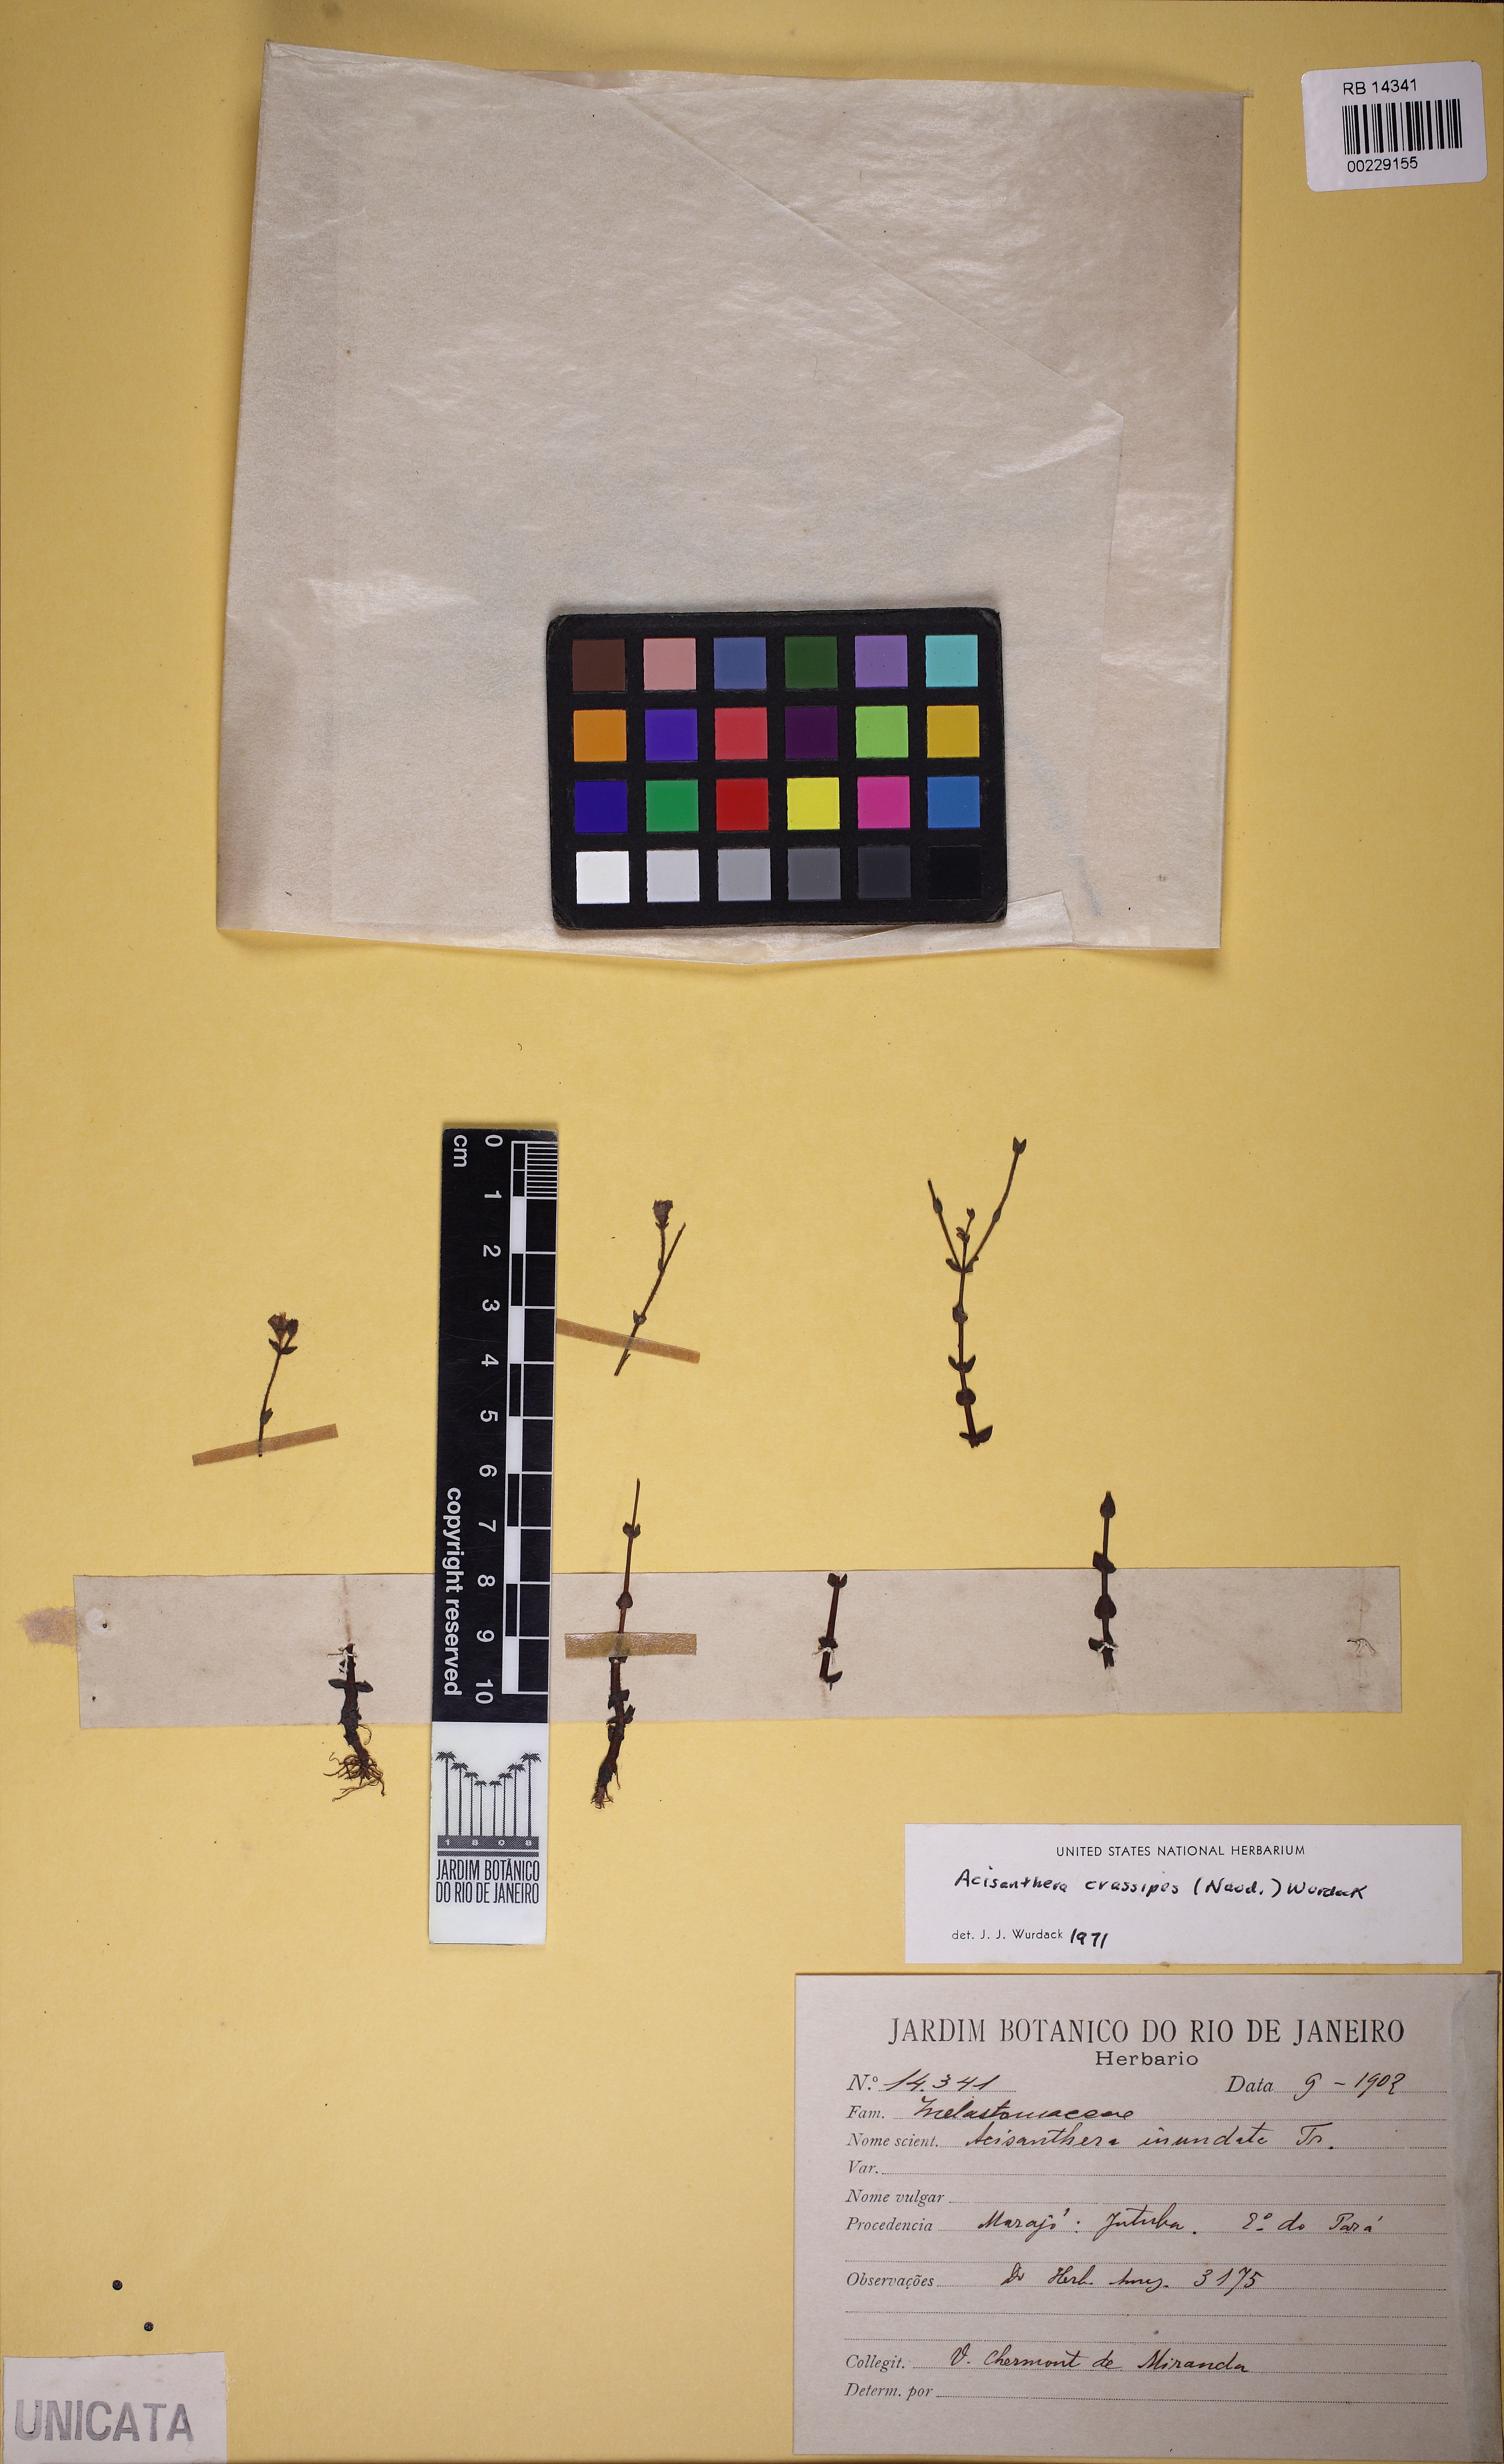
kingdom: Plantae
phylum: Tracheophyta
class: Magnoliopsida
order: Myrtales
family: Melastomataceae
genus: Noterophila
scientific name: Noterophila crassipes
